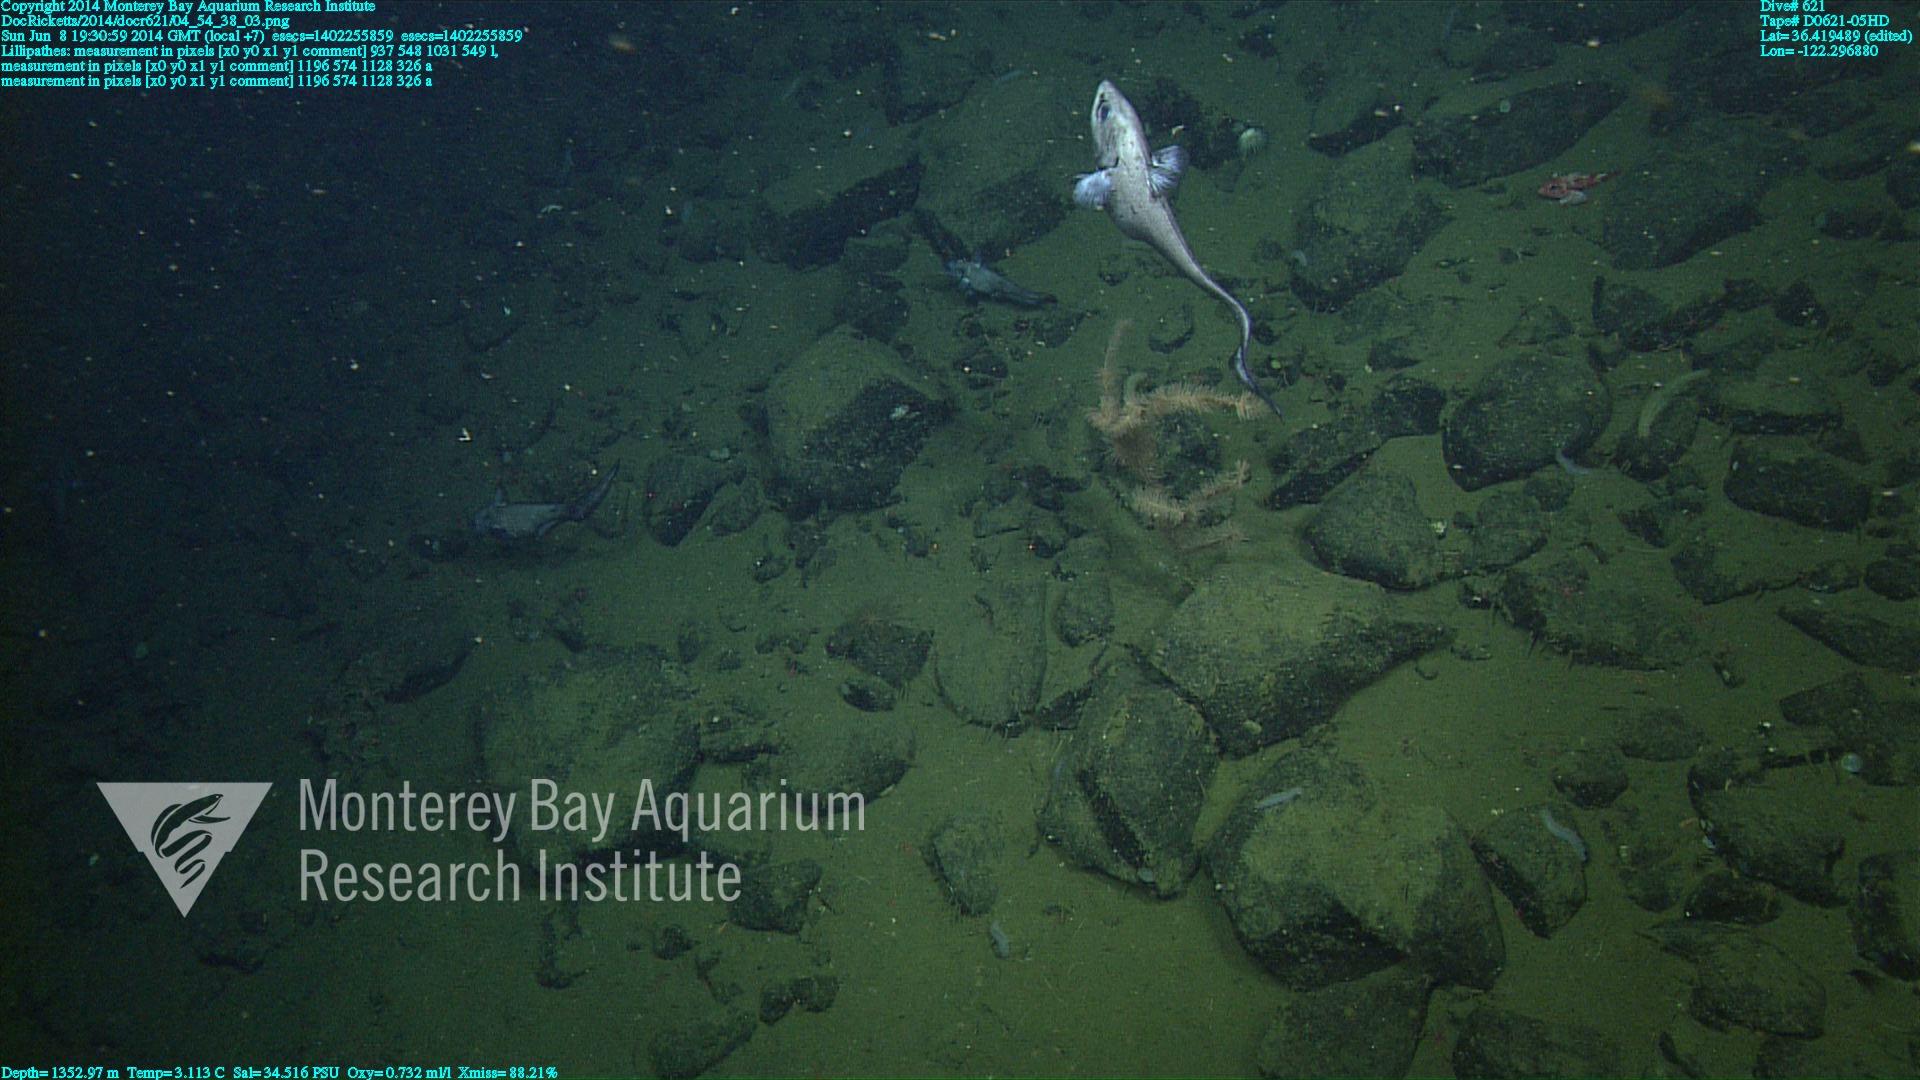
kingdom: Animalia
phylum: Cnidaria
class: Anthozoa
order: Antipatharia
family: Schizopathidae
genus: Lillipathes
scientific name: Lillipathes
